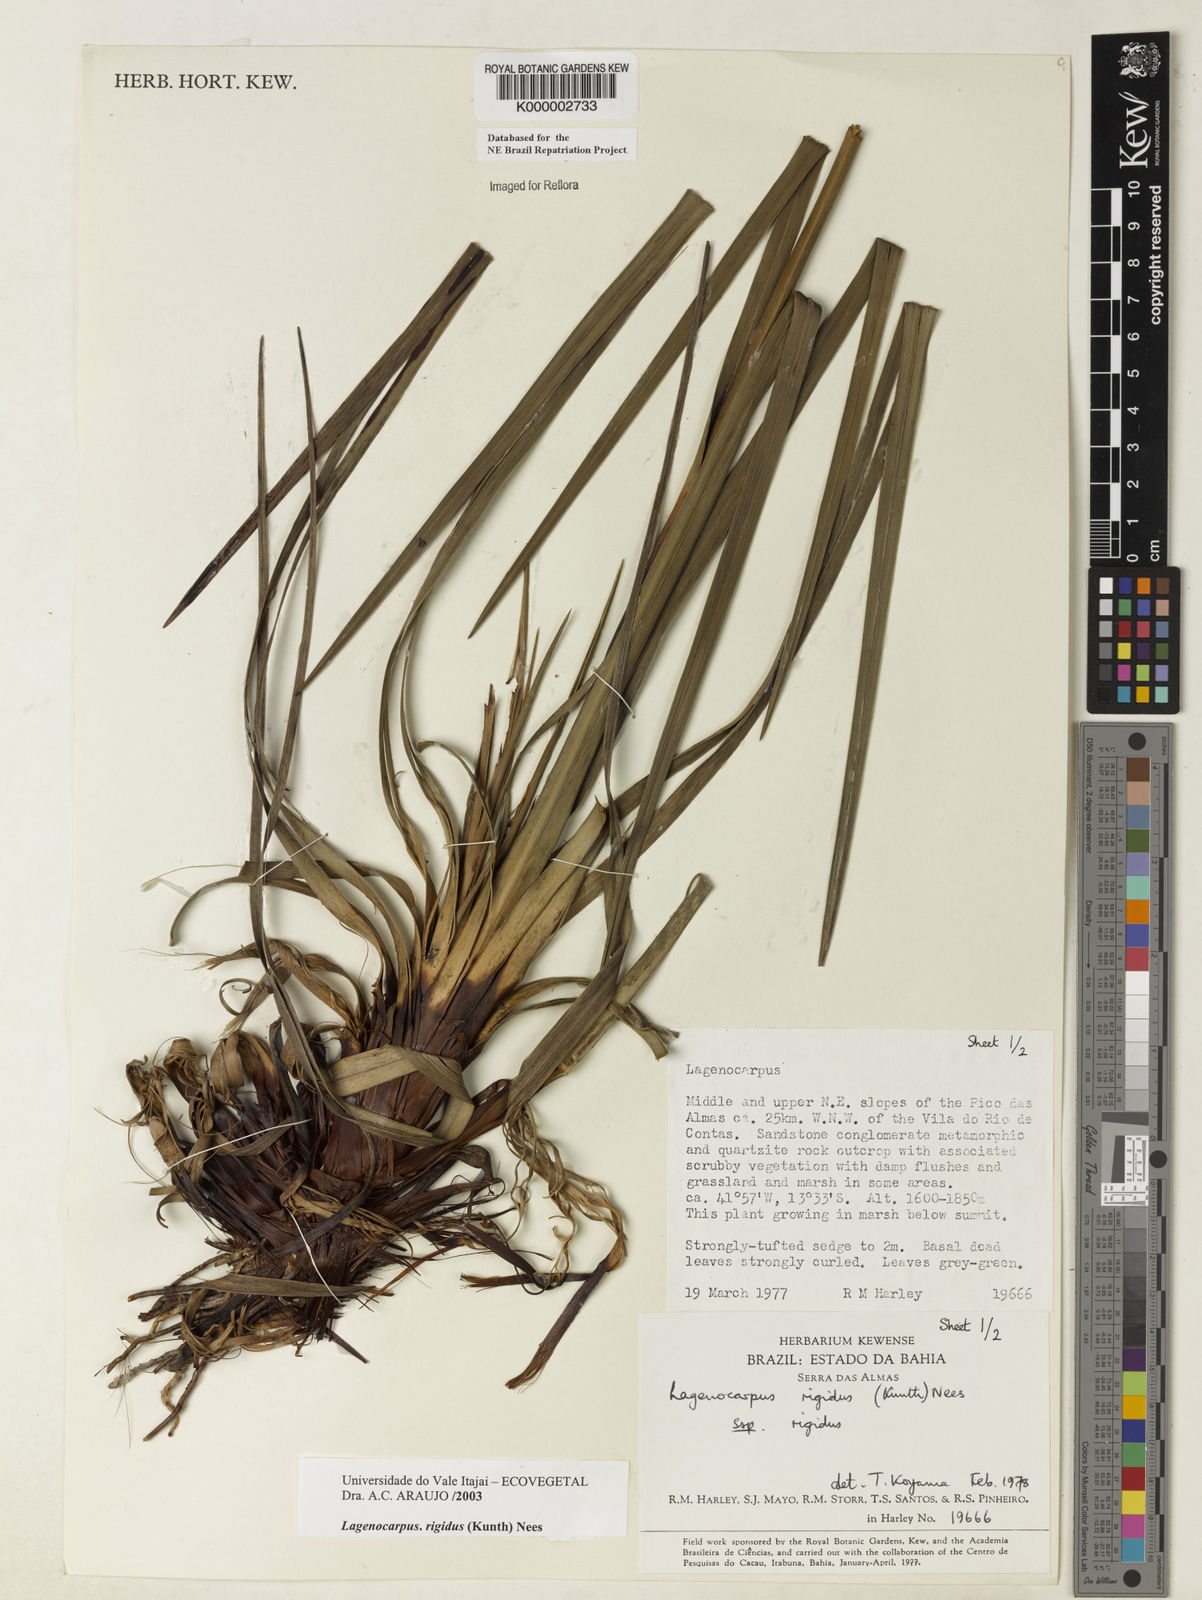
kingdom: Plantae
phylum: Tracheophyta
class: Liliopsida
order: Poales
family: Cyperaceae
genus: Lagenocarpus
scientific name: Lagenocarpus rigidus
